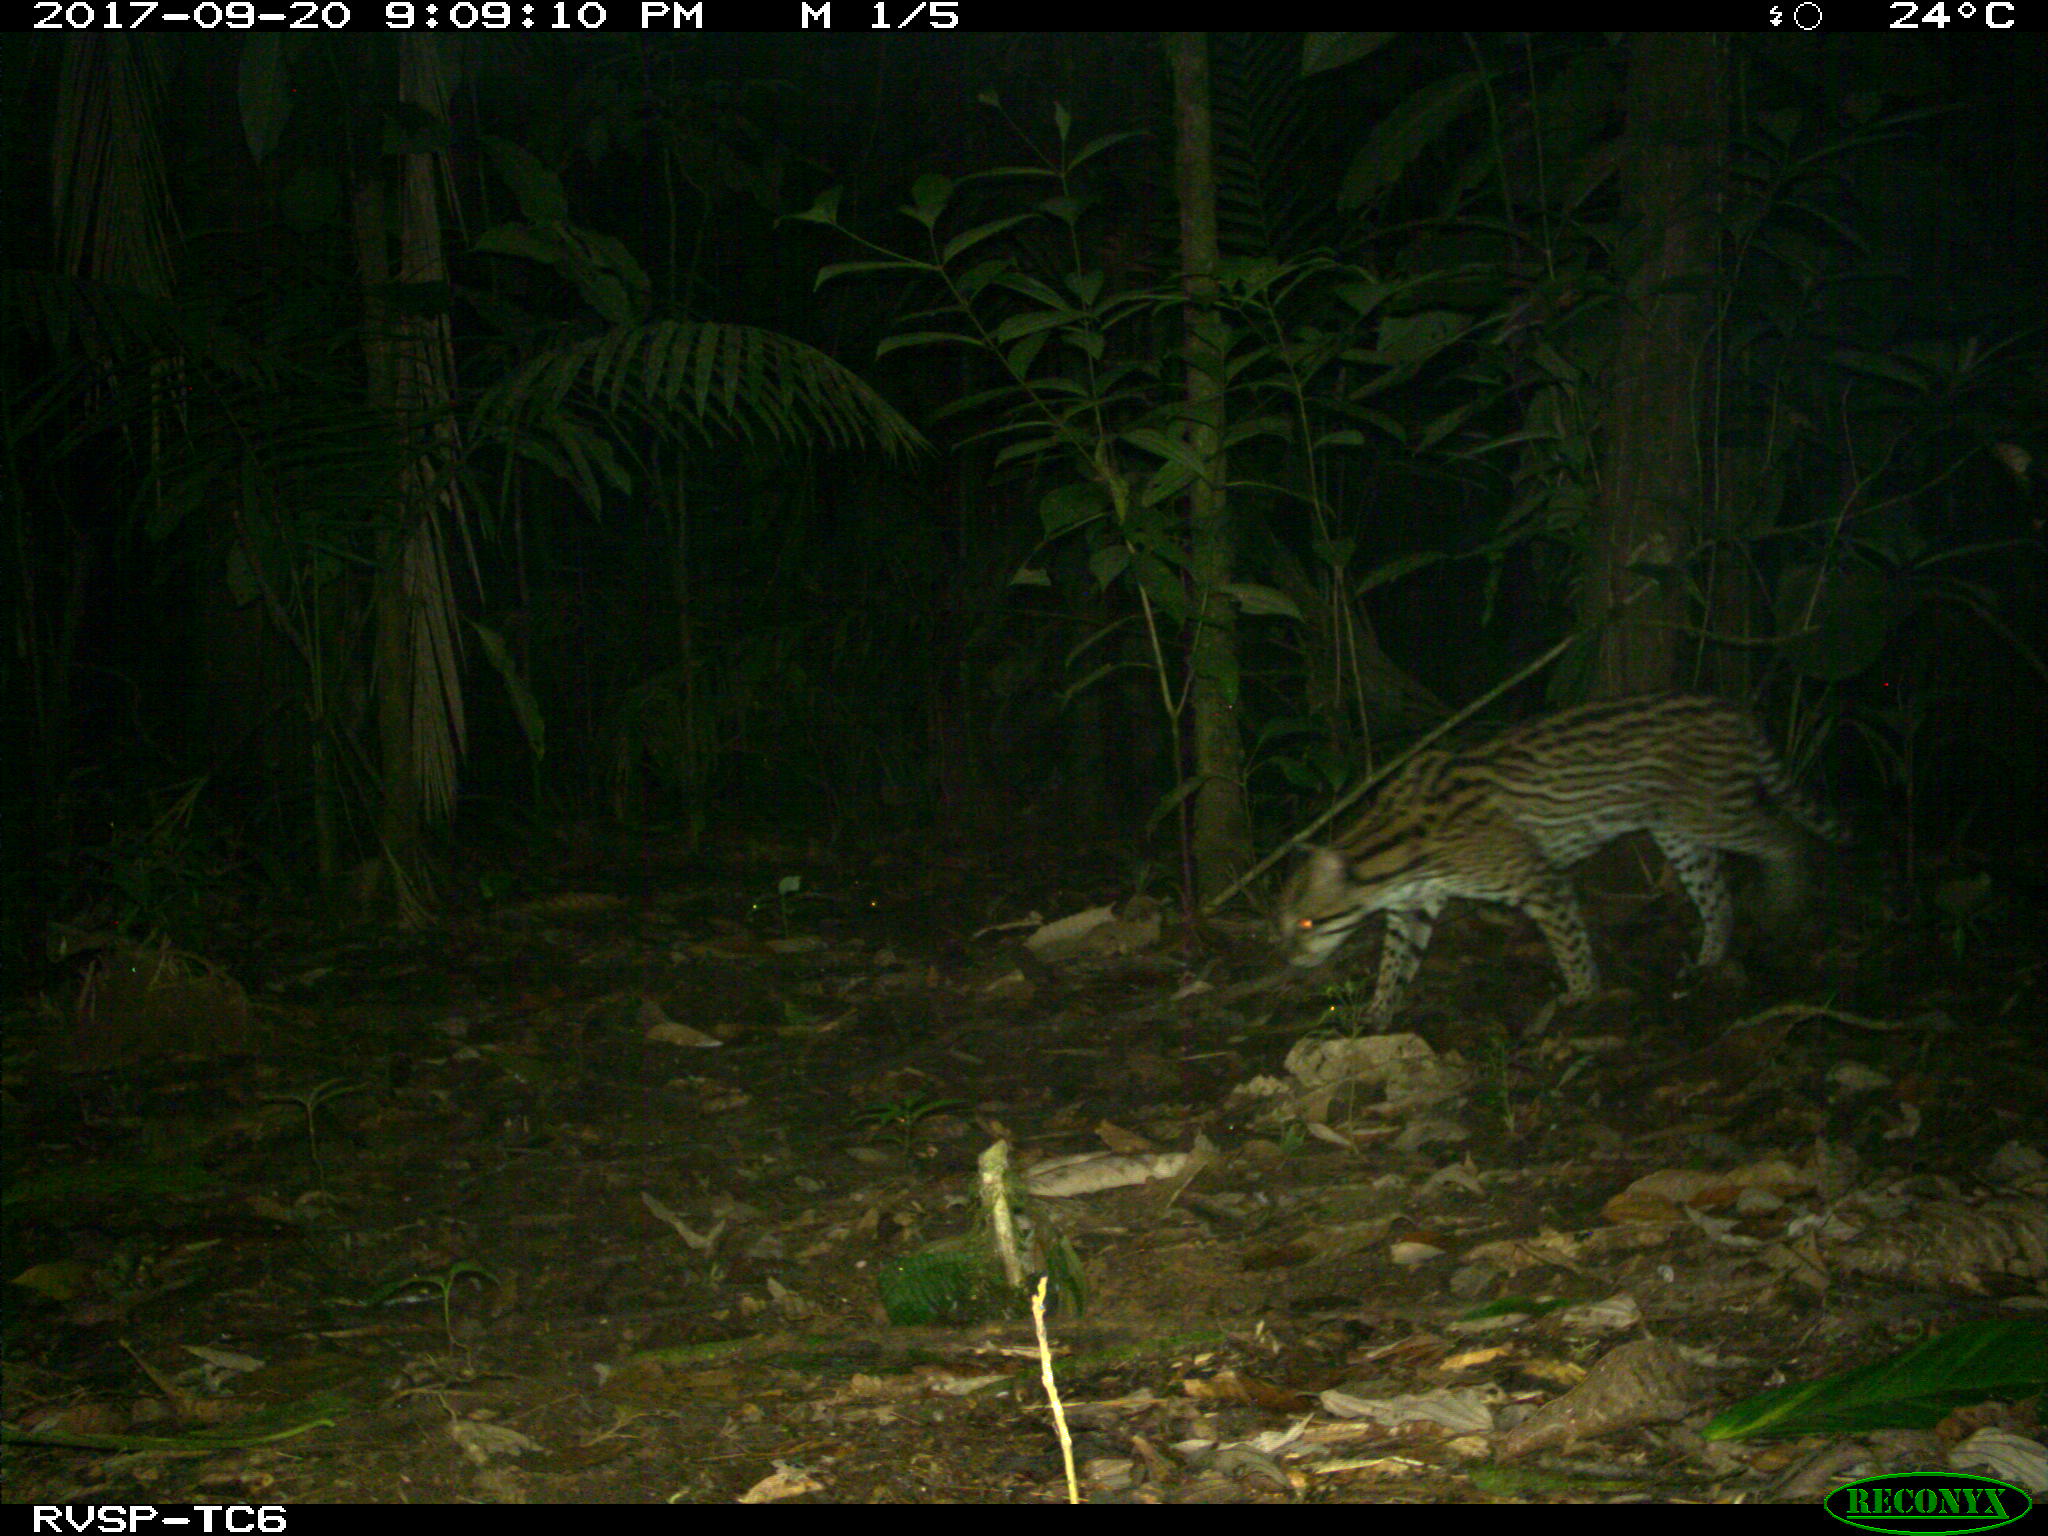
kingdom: Animalia
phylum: Chordata
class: Mammalia
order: Carnivora
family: Felidae
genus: Leopardus
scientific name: Leopardus wiedii
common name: Margay
